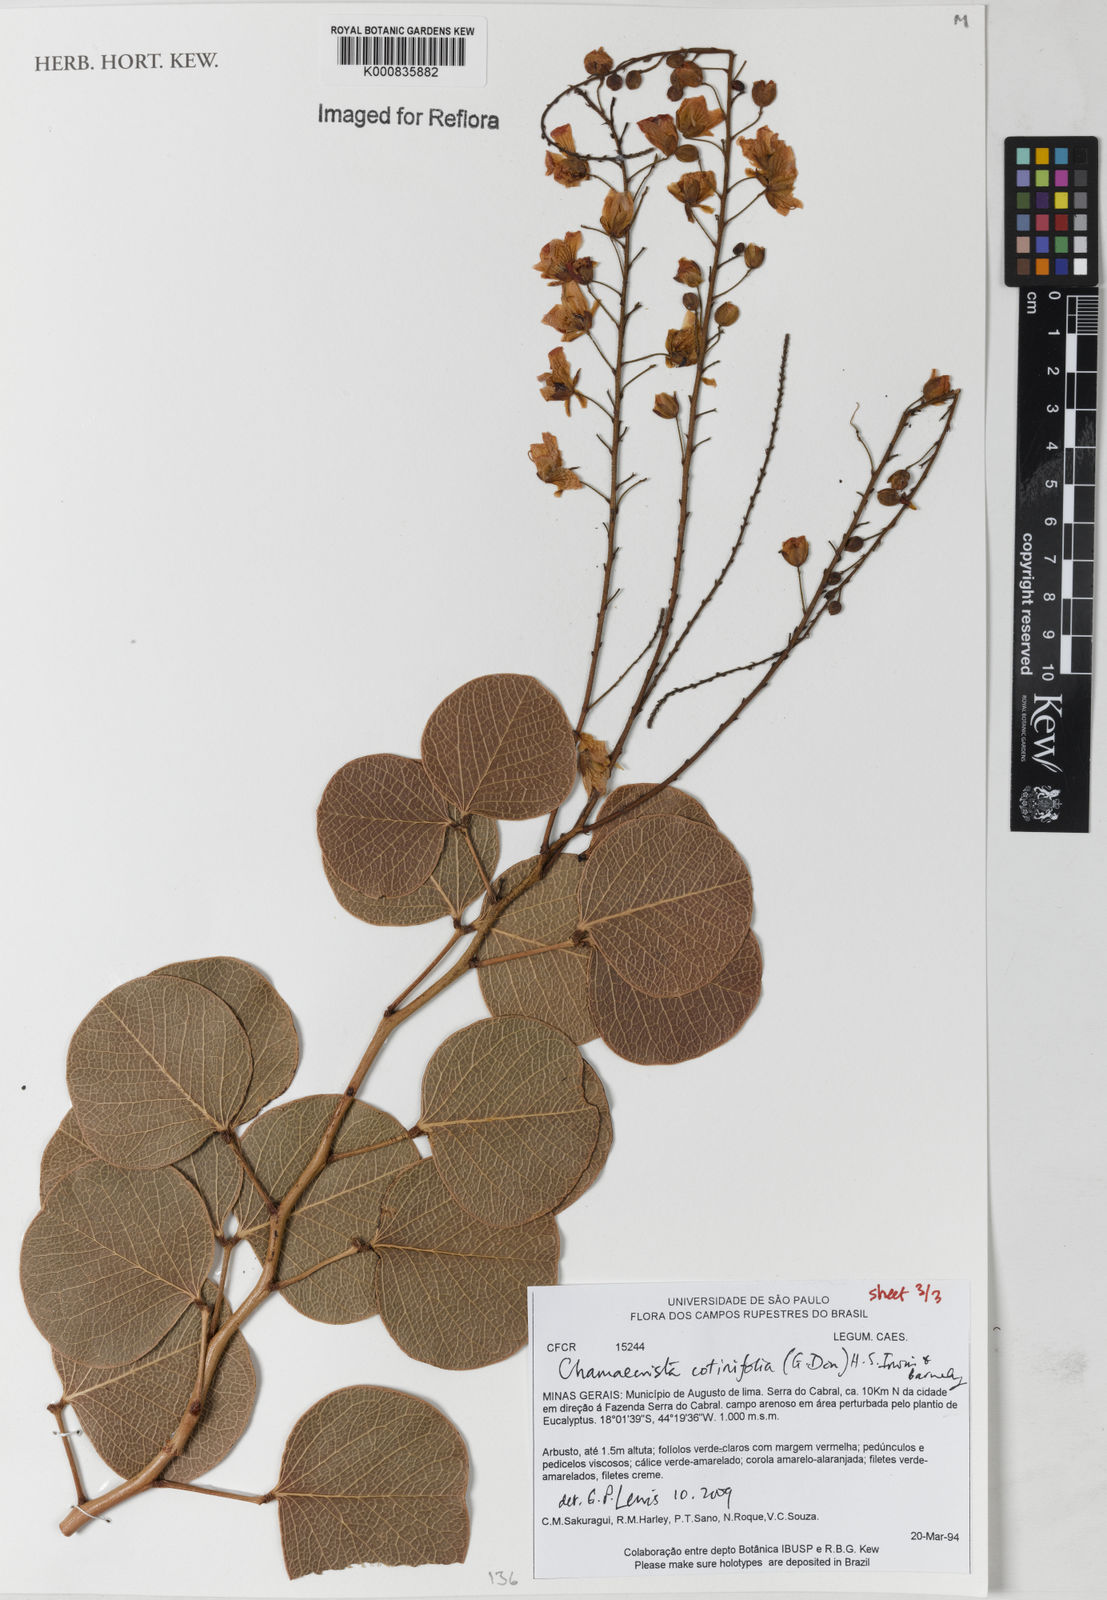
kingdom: Plantae
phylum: Tracheophyta
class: Magnoliopsida
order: Fabales
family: Fabaceae
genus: Chamaecrista
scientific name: Chamaecrista cotinifolia
